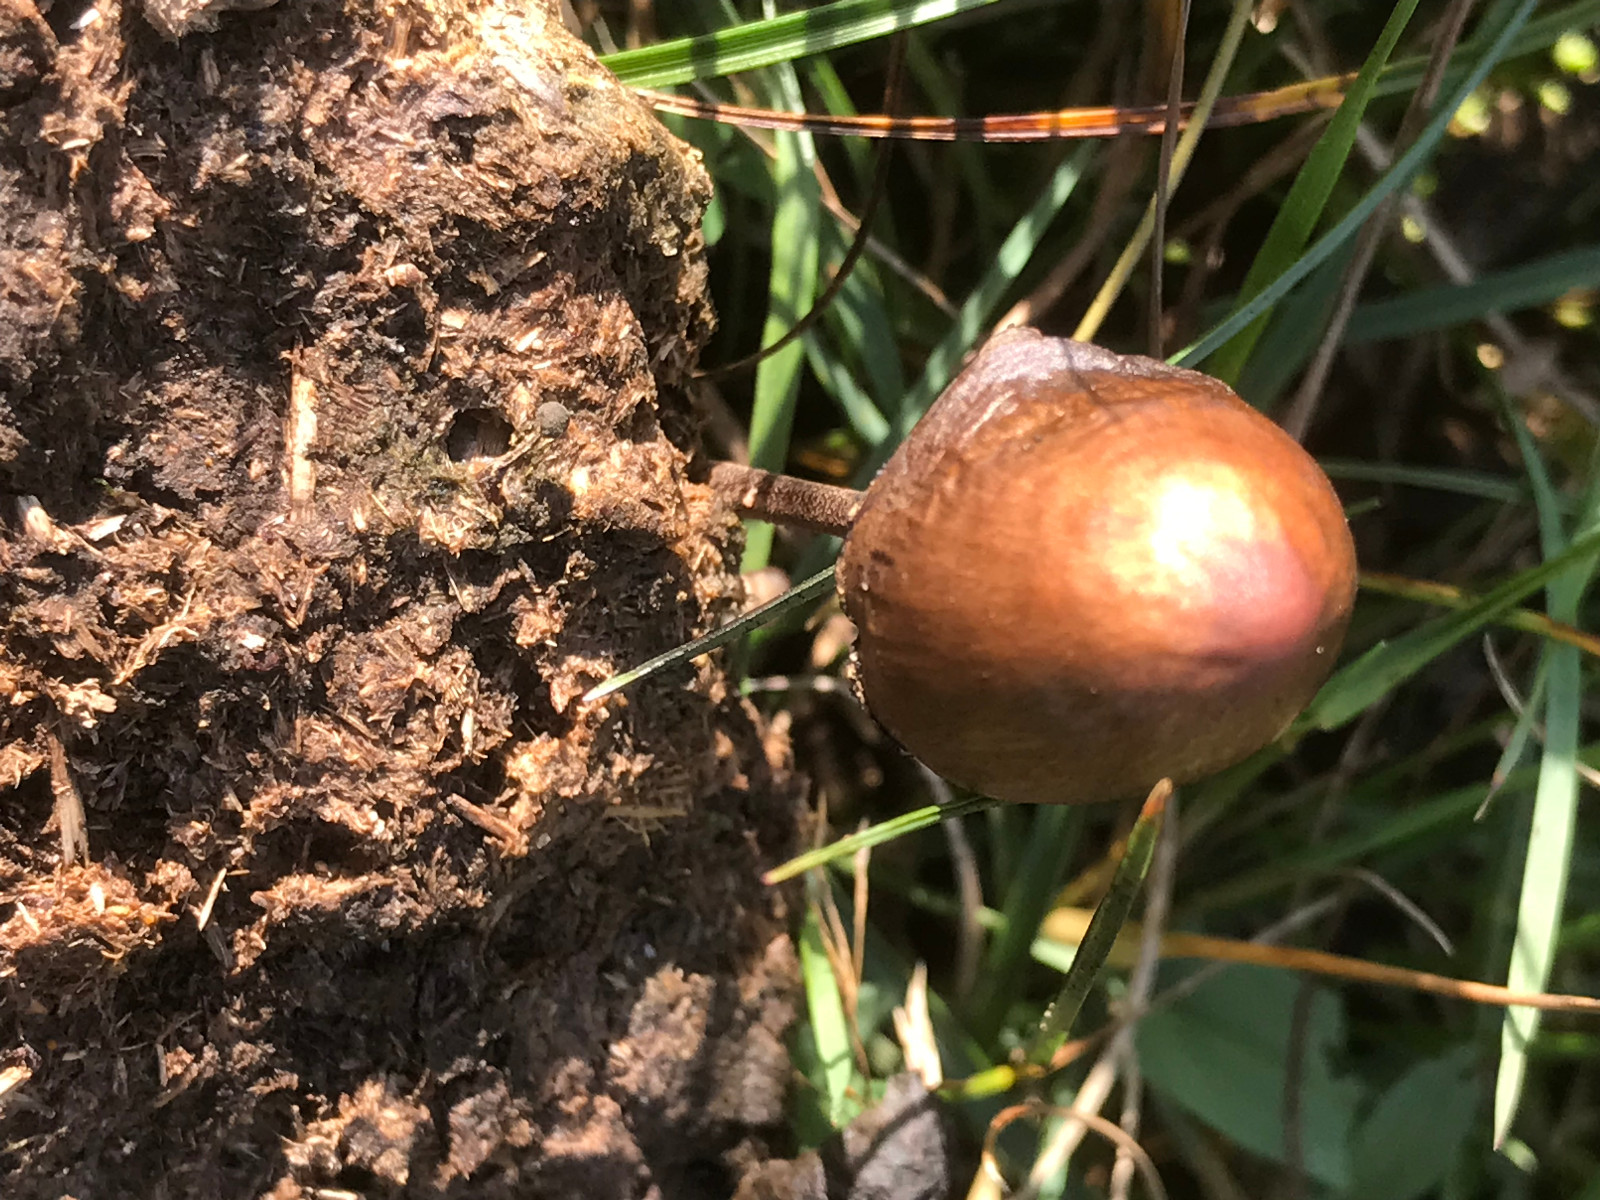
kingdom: Fungi
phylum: Basidiomycota
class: Agaricomycetes
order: Agaricales
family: Bolbitiaceae
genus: Panaeolus
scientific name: Panaeolus
